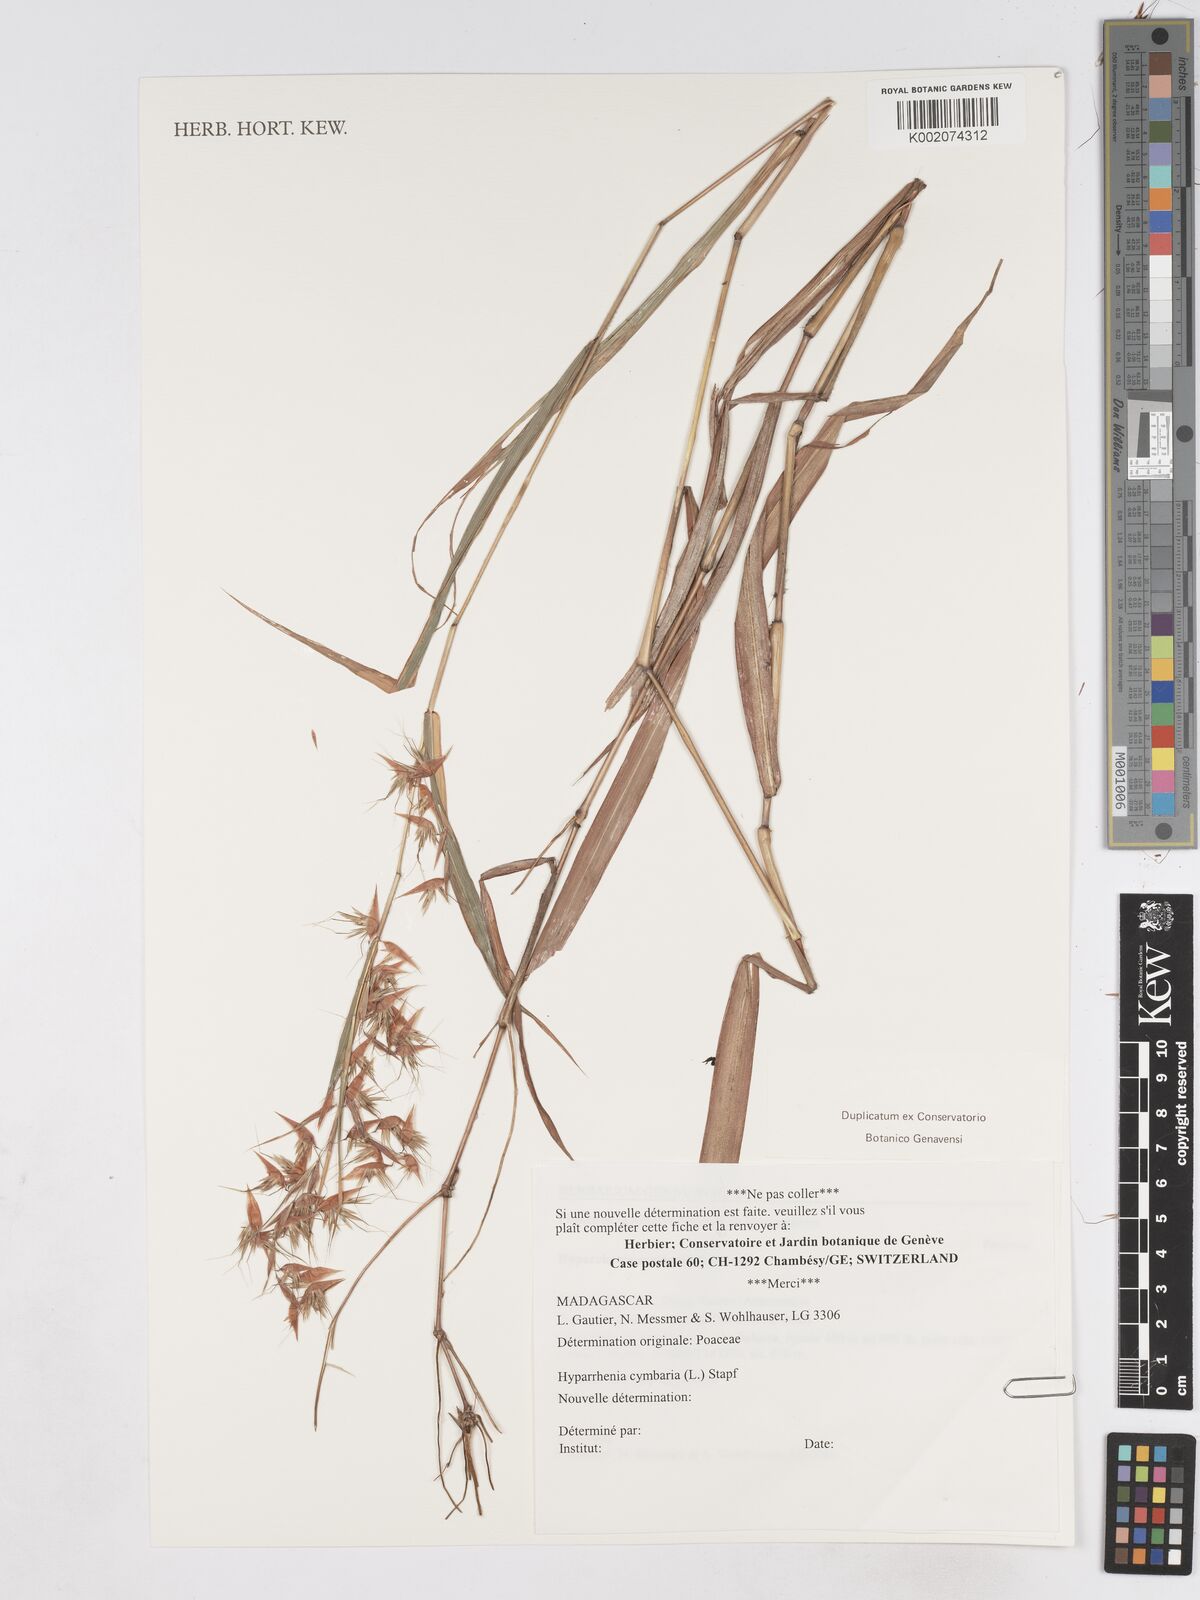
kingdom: Plantae
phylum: Tracheophyta
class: Liliopsida
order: Poales
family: Poaceae
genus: Hyparrhenia
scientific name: Hyparrhenia cymbaria
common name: Boat thatching grass
